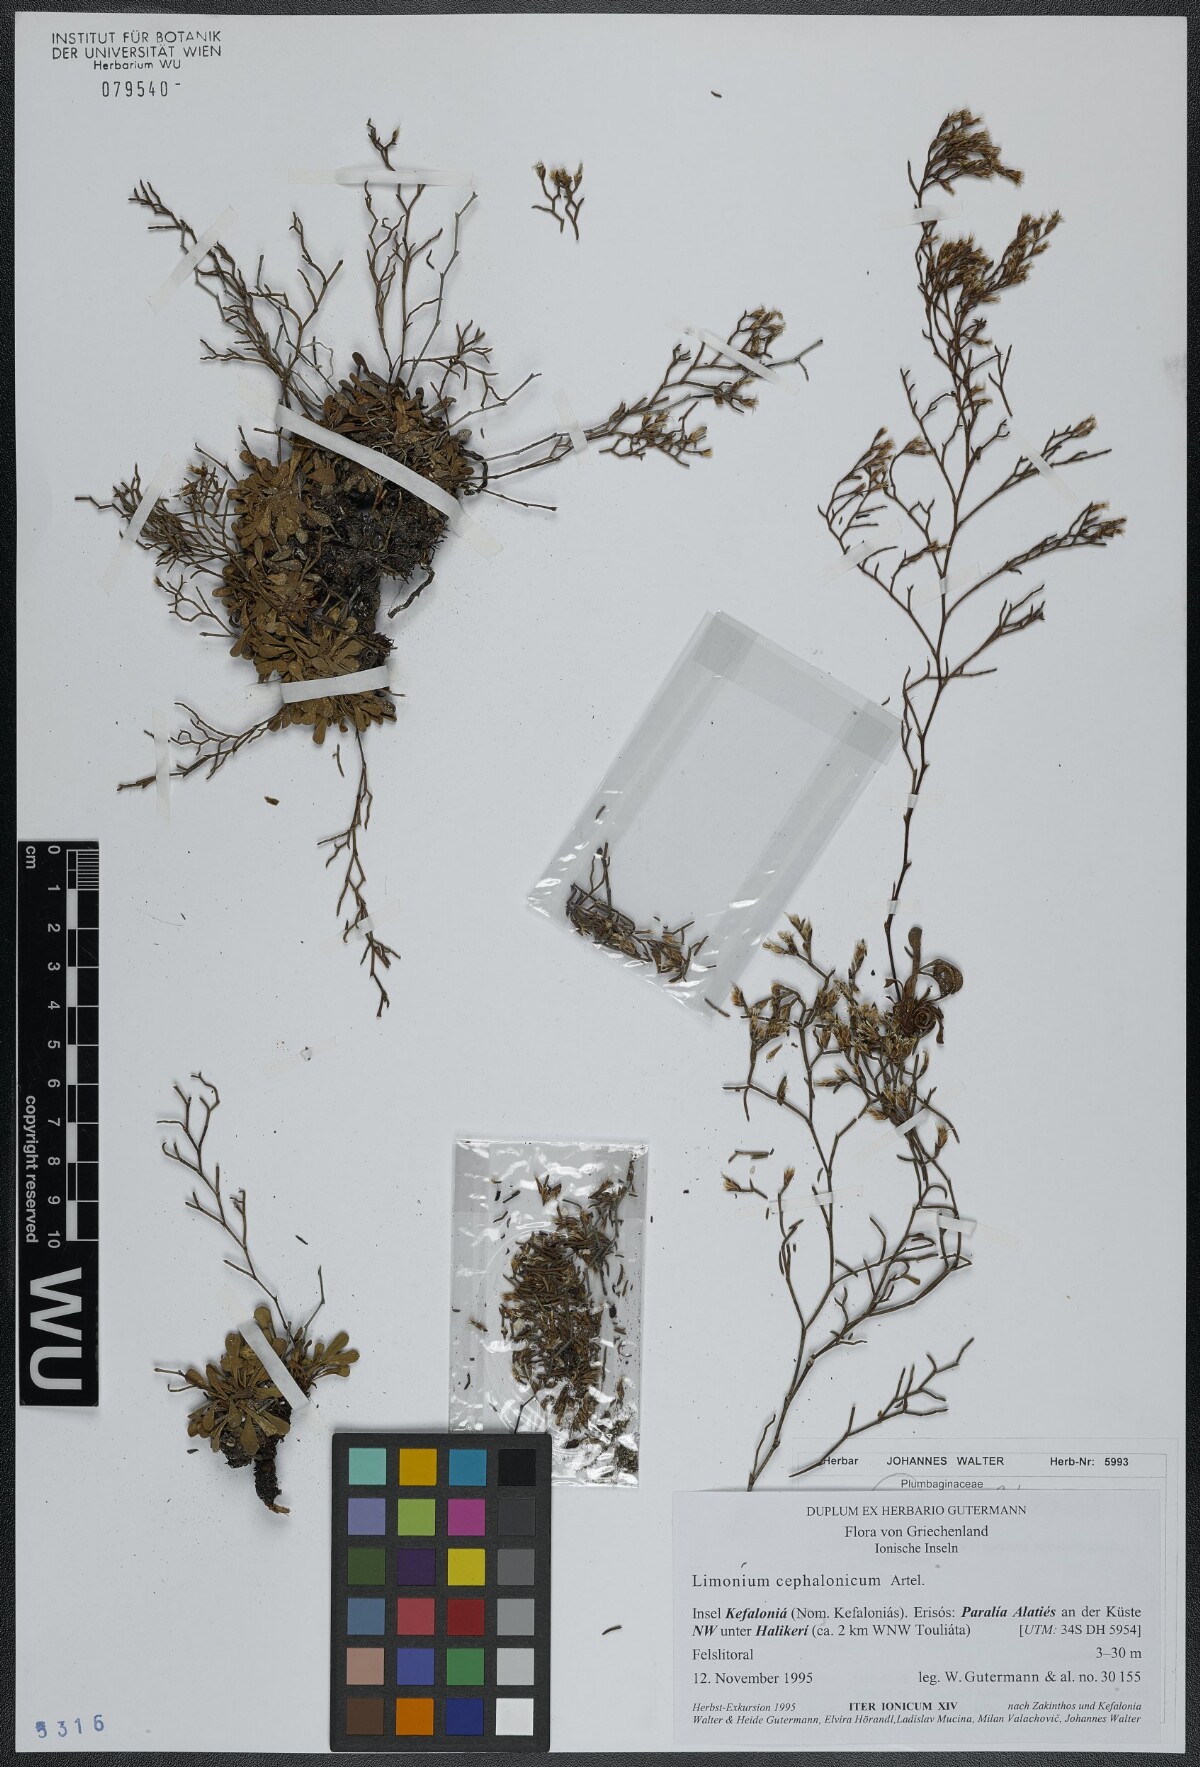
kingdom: Plantae
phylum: Tracheophyta
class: Magnoliopsida
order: Caryophyllales
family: Plumbaginaceae
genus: Limonium
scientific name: Limonium cephalonicum
